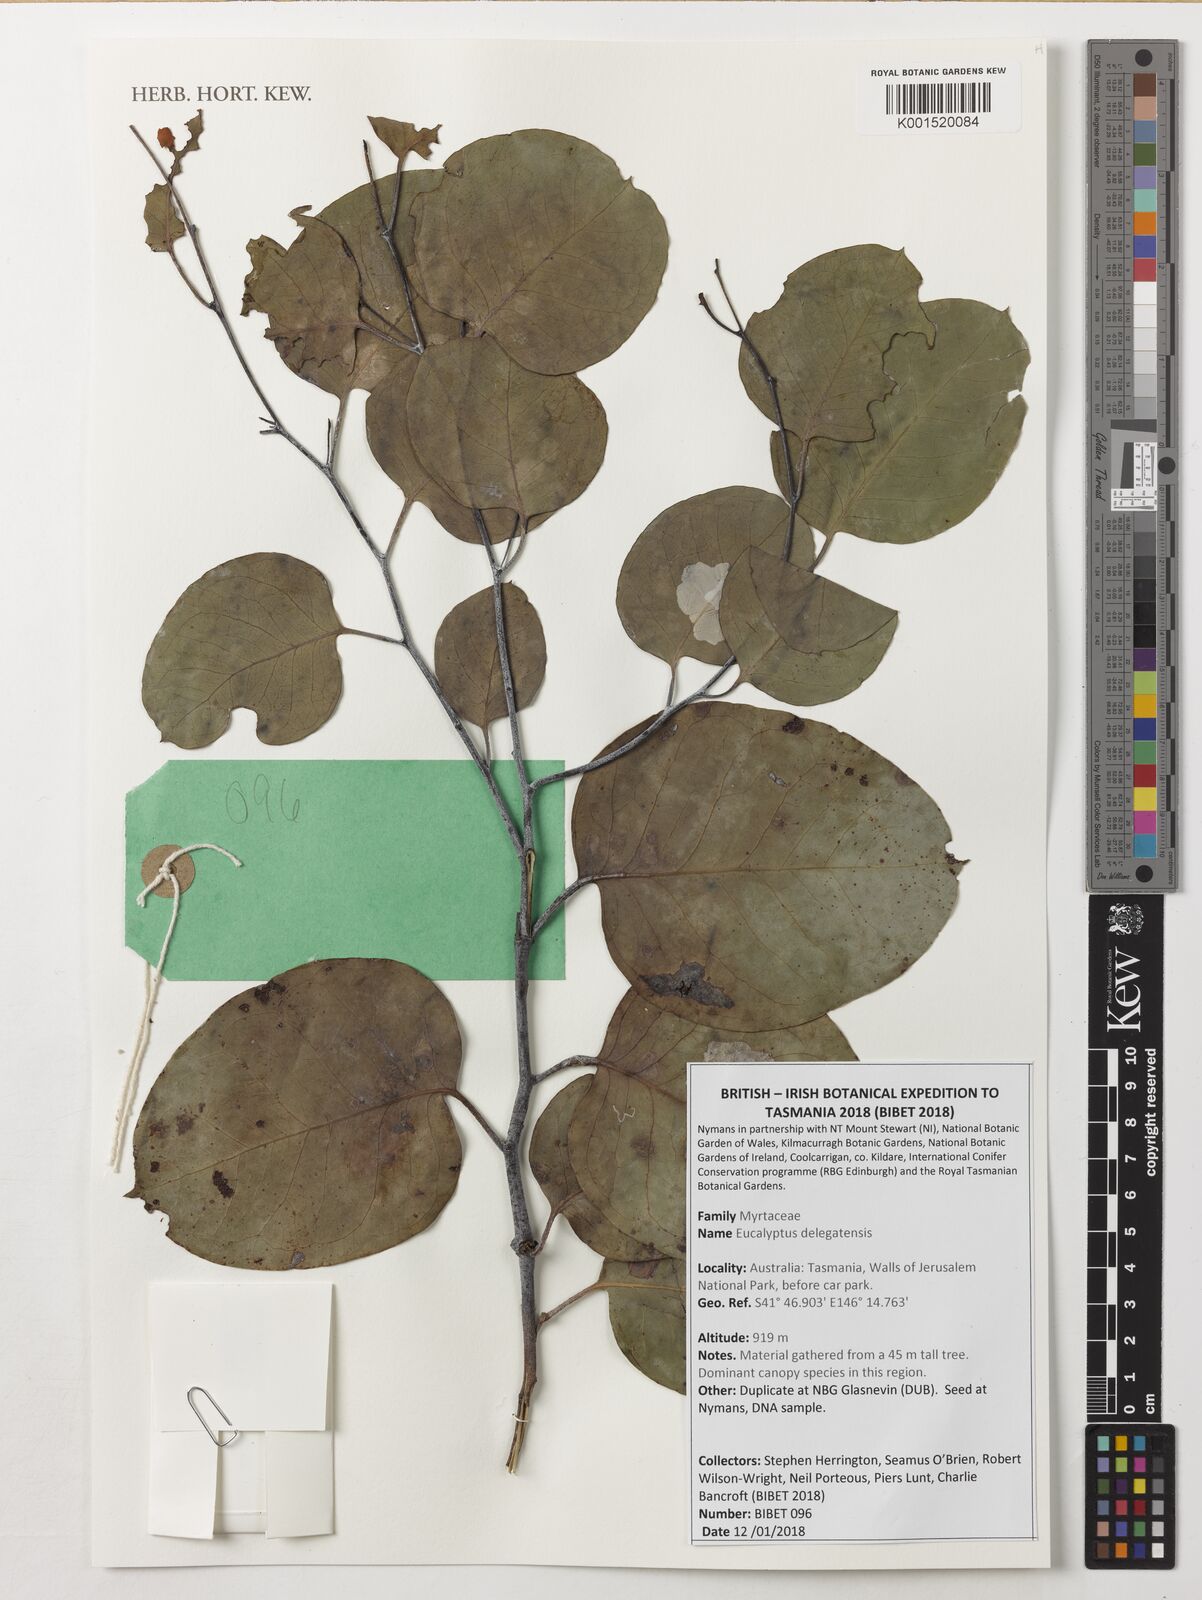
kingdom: Plantae
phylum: Tracheophyta
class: Magnoliopsida
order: Myrtales
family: Myrtaceae
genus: Eucalyptus
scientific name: Eucalyptus delegatensis
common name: Alpine-ash
